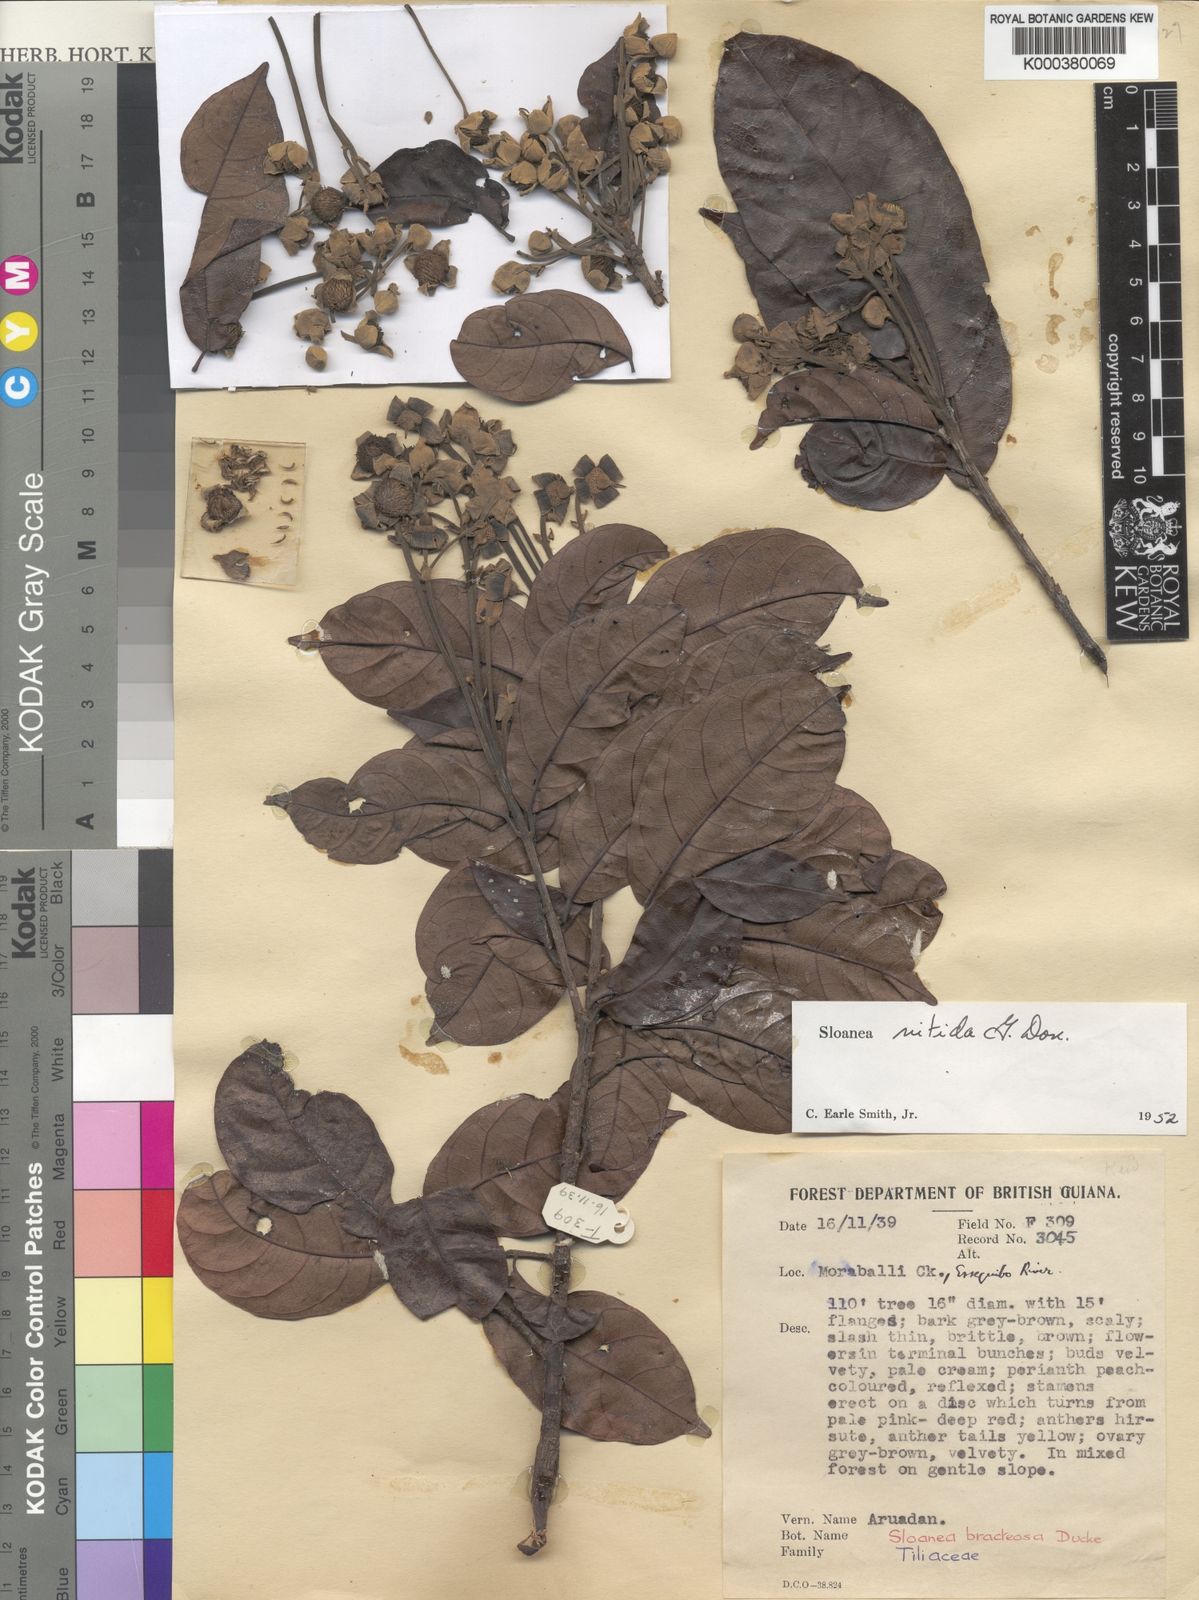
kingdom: Plantae
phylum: Tracheophyta
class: Magnoliopsida
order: Oxalidales
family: Elaeocarpaceae
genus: Sloanea
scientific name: Sloanea nitida
